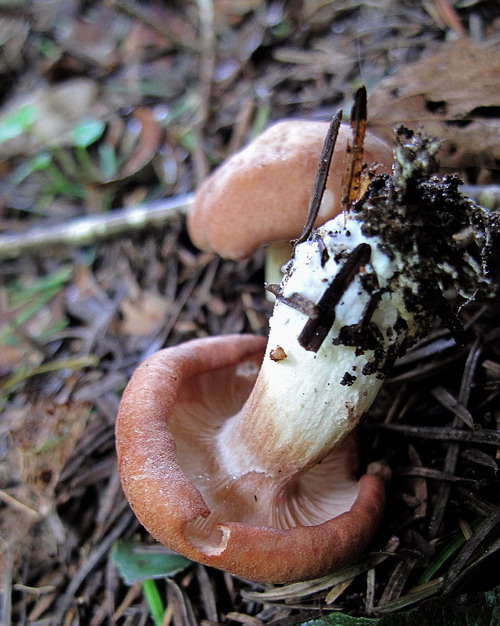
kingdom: Fungi
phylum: Basidiomycota
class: Agaricomycetes
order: Agaricales
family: Entolomataceae
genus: Clitopilus
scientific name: Clitopilus geminus
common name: kødfarvet troldhat
